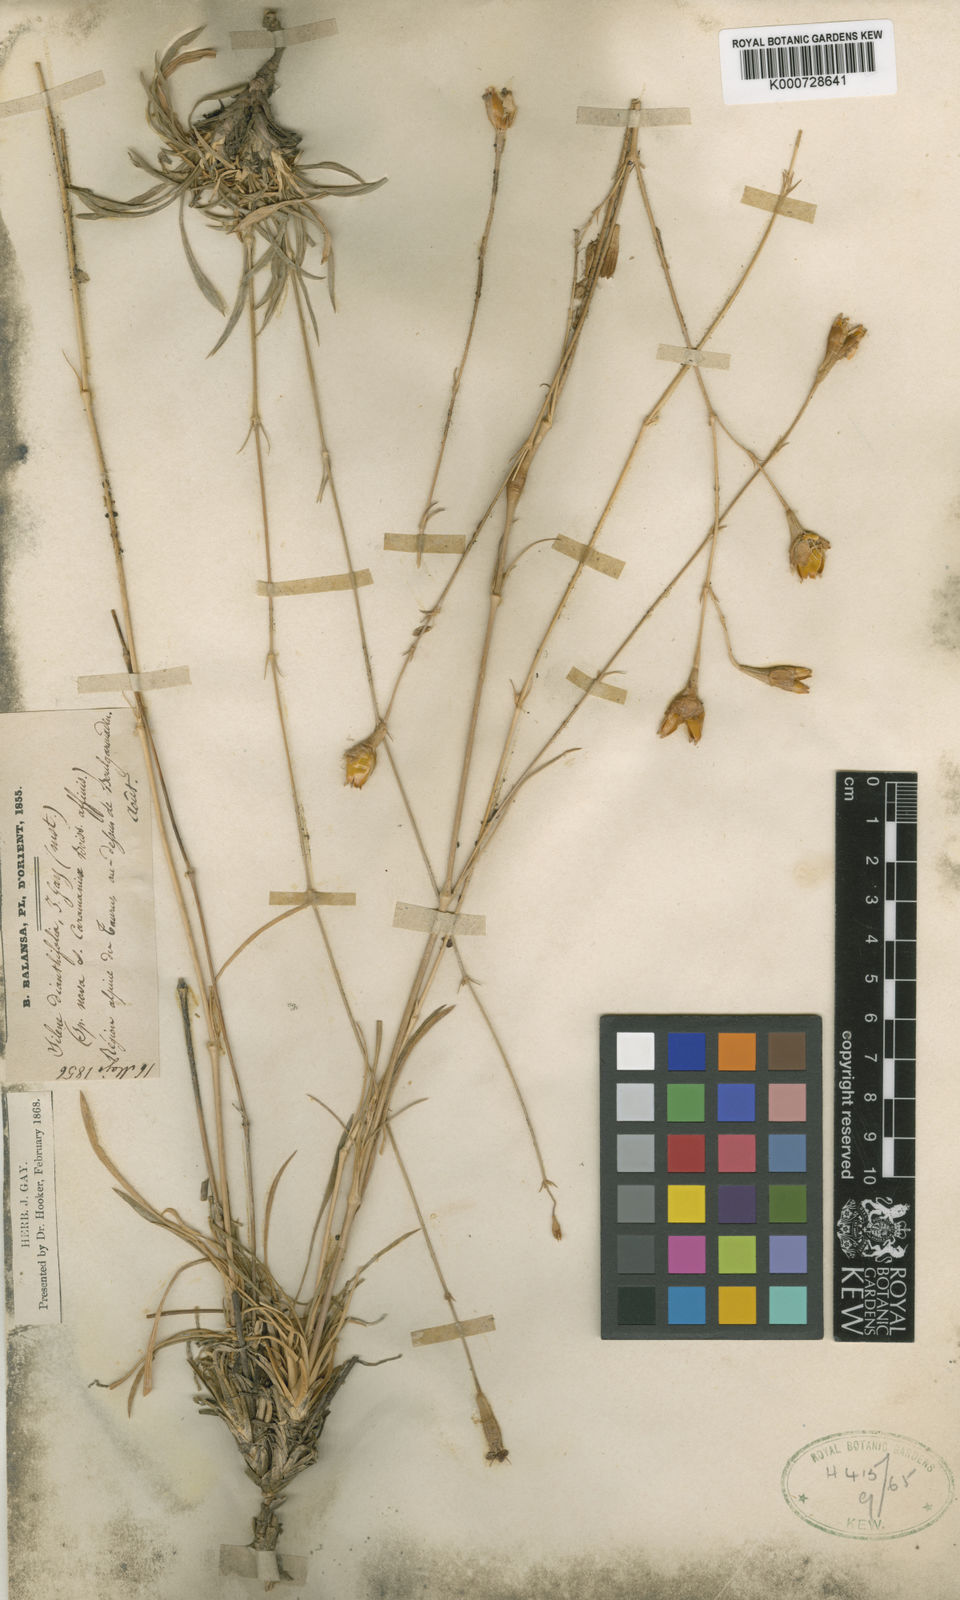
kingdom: Plantae
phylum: Tracheophyta
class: Magnoliopsida
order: Caryophyllales
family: Caryophyllaceae
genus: Silene
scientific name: Silene armena
